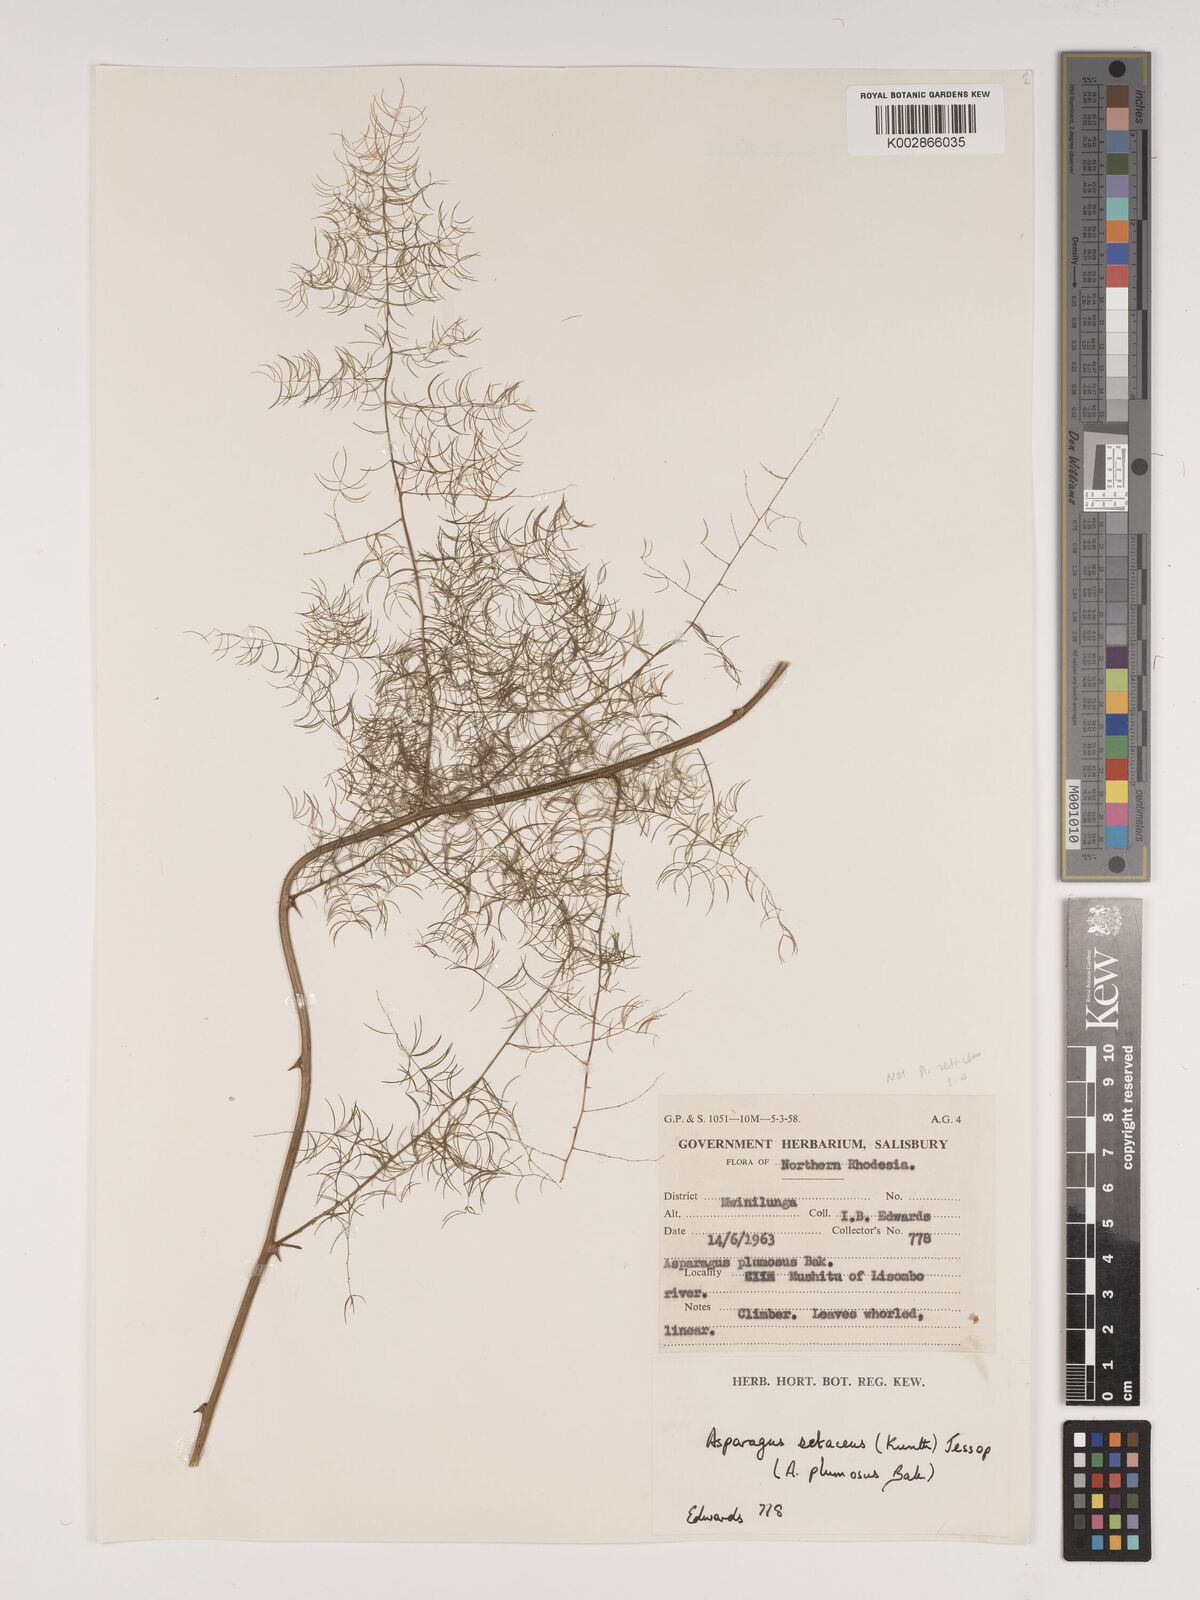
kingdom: Plantae
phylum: Tracheophyta
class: Liliopsida
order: Asparagales
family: Asparagaceae
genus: Asparagus
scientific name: Asparagus racemosus
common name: Asparagus-fern
